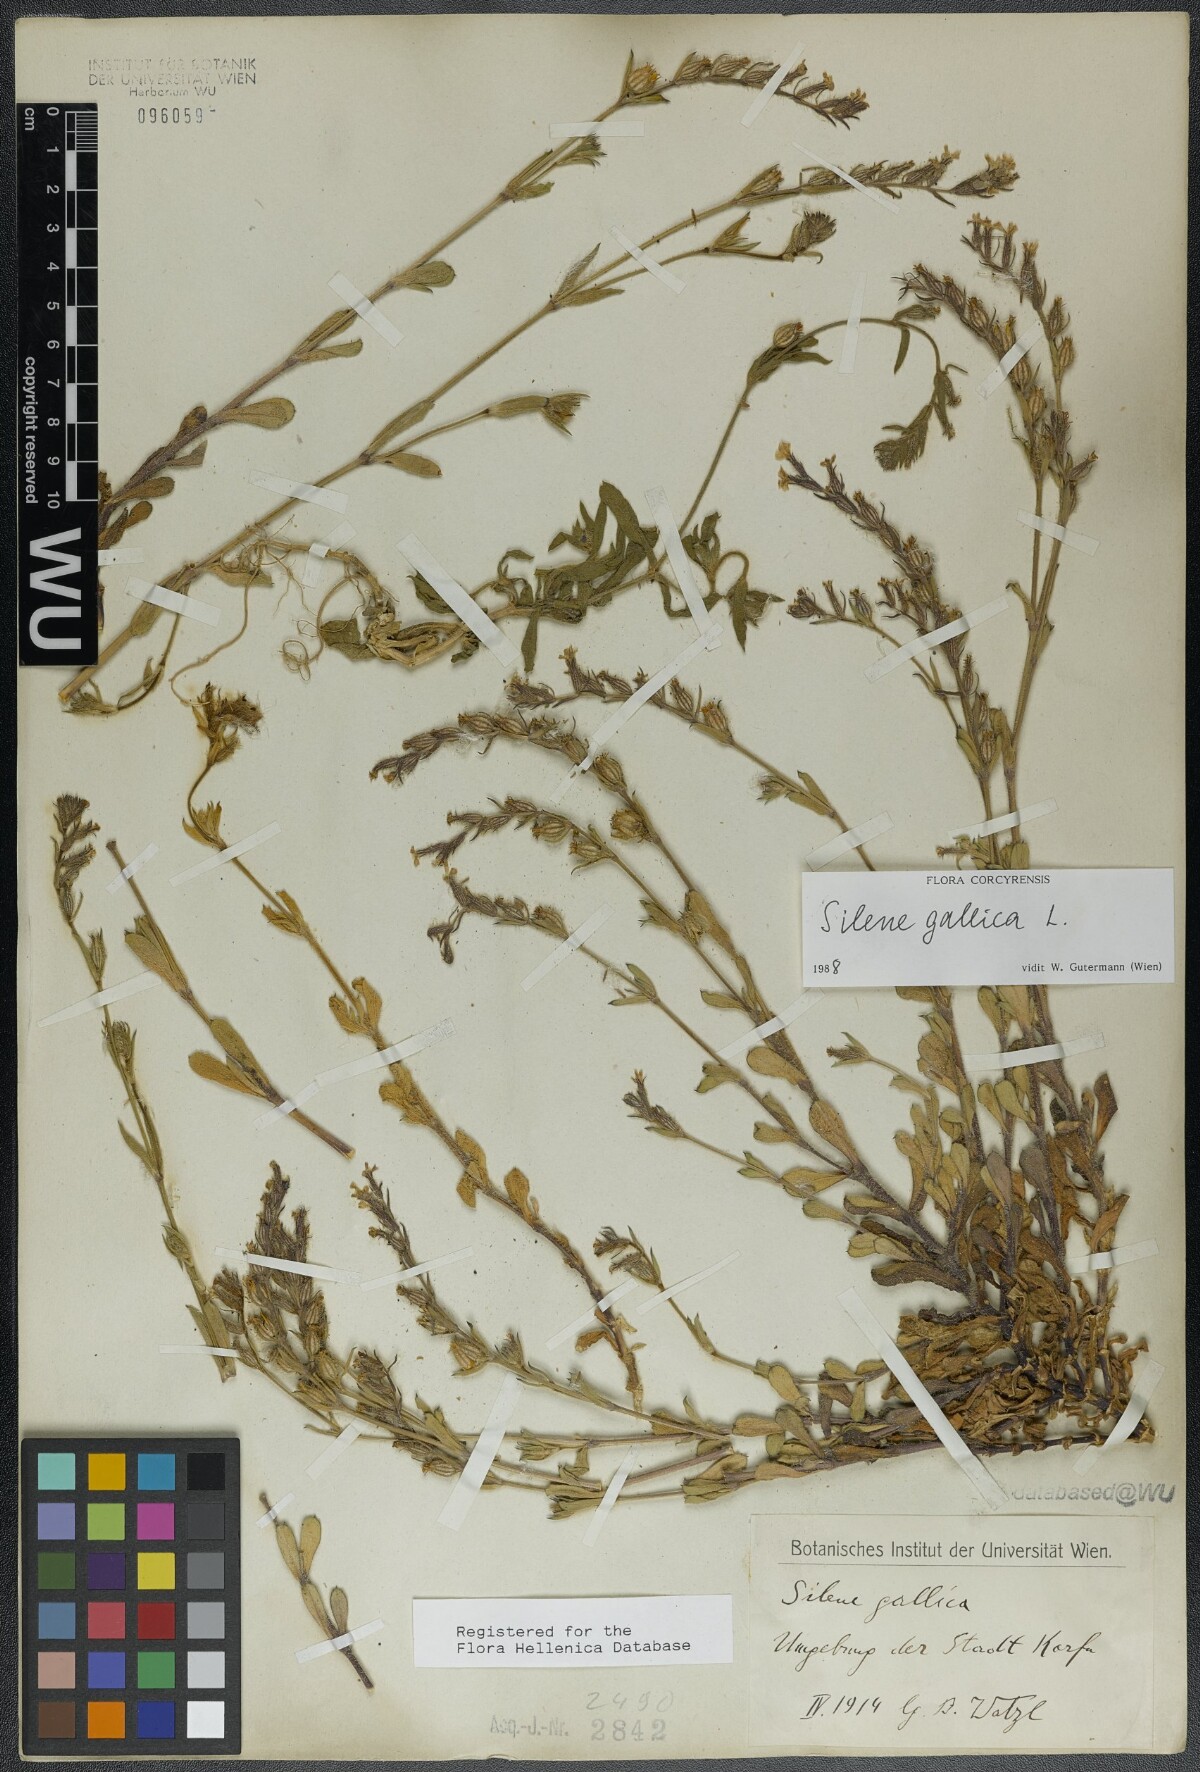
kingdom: Plantae
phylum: Tracheophyta
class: Magnoliopsida
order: Caryophyllales
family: Caryophyllaceae
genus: Silene
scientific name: Silene gallica
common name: Small-flowered catchfly
